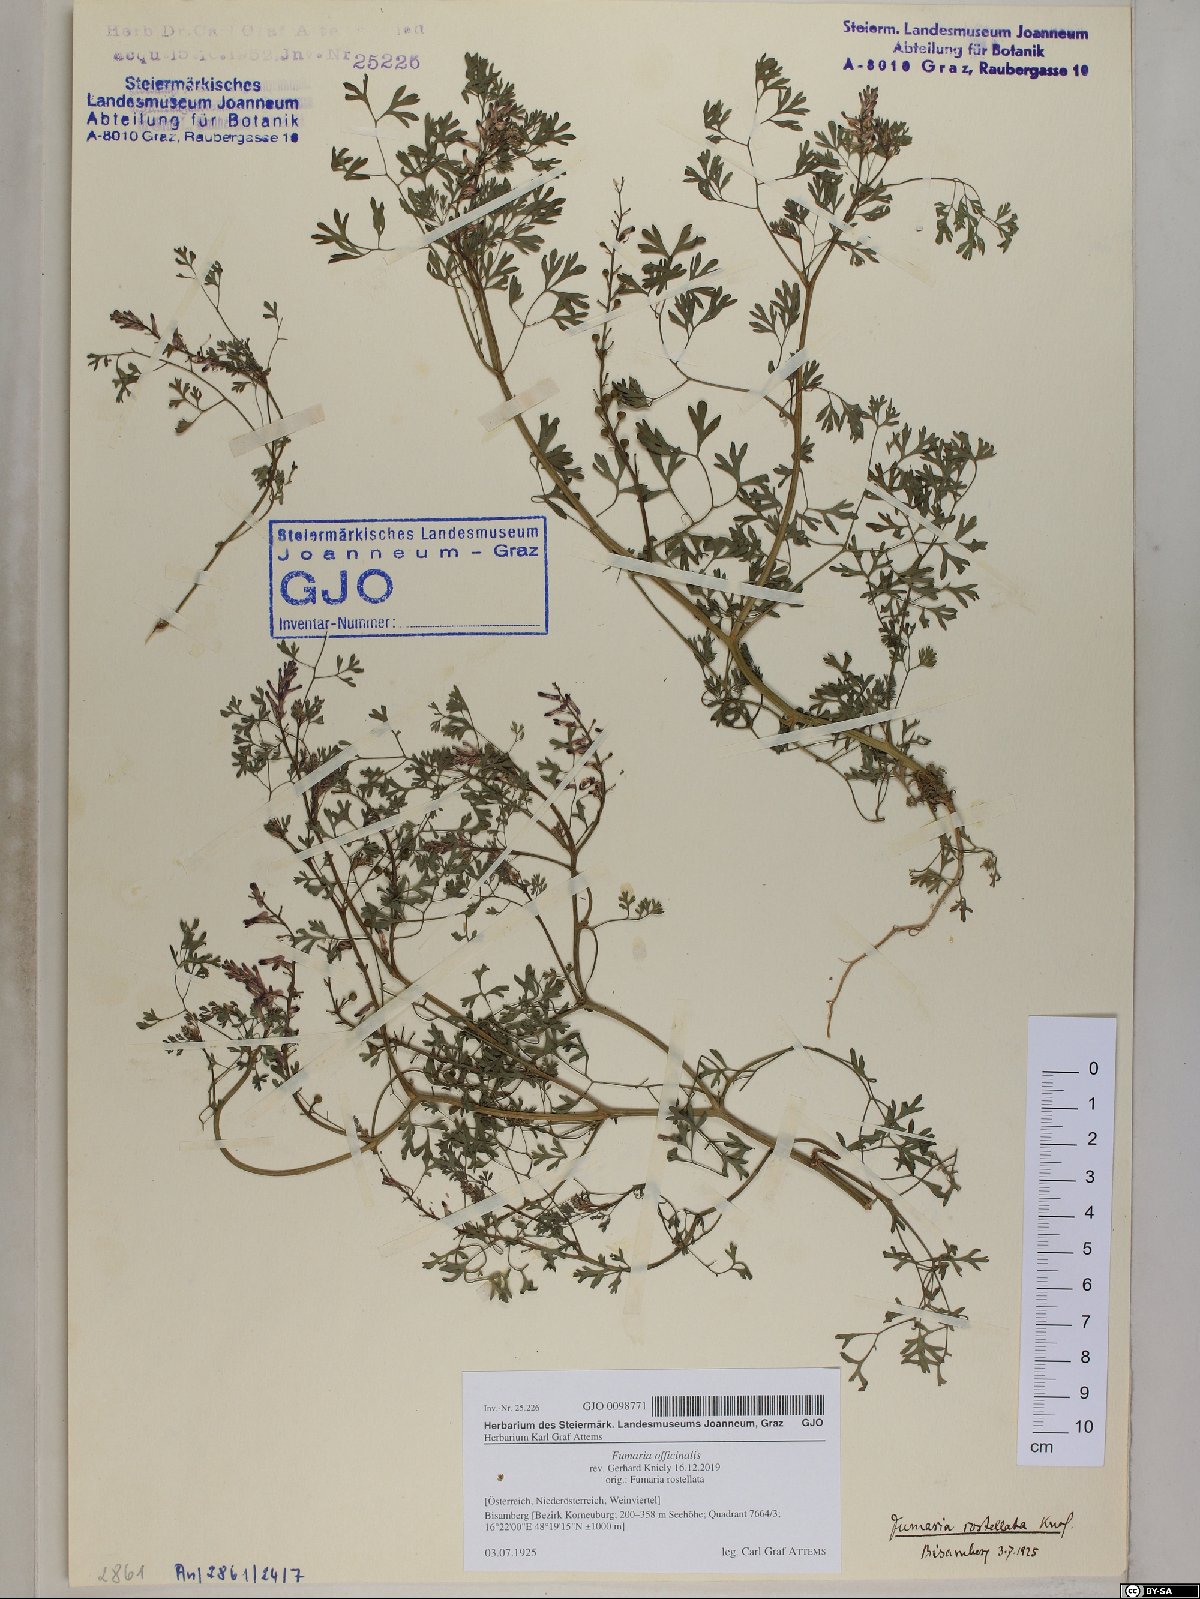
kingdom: Plantae
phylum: Tracheophyta
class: Magnoliopsida
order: Ranunculales
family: Papaveraceae
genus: Fumaria
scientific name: Fumaria officinalis
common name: Common fumitory
